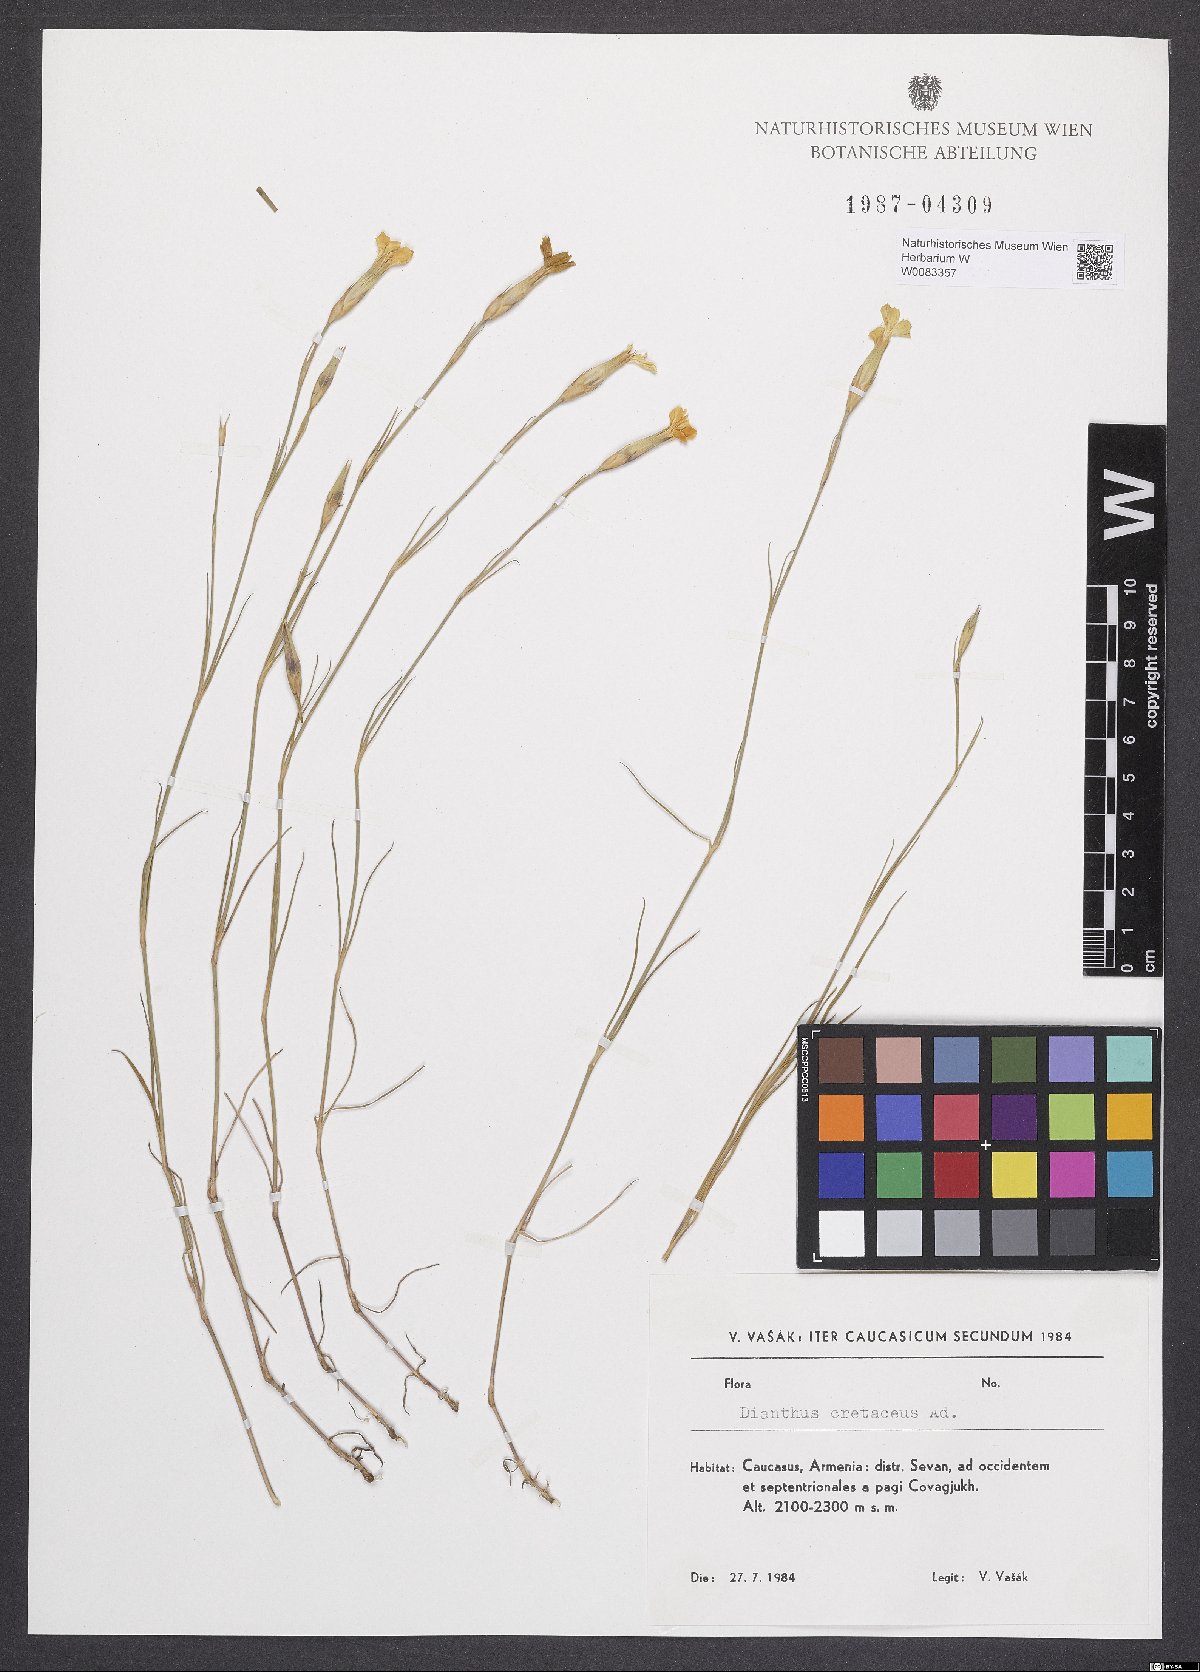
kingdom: Plantae
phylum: Tracheophyta
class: Magnoliopsida
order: Caryophyllales
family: Caryophyllaceae
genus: Dianthus
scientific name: Dianthus cretaceus
